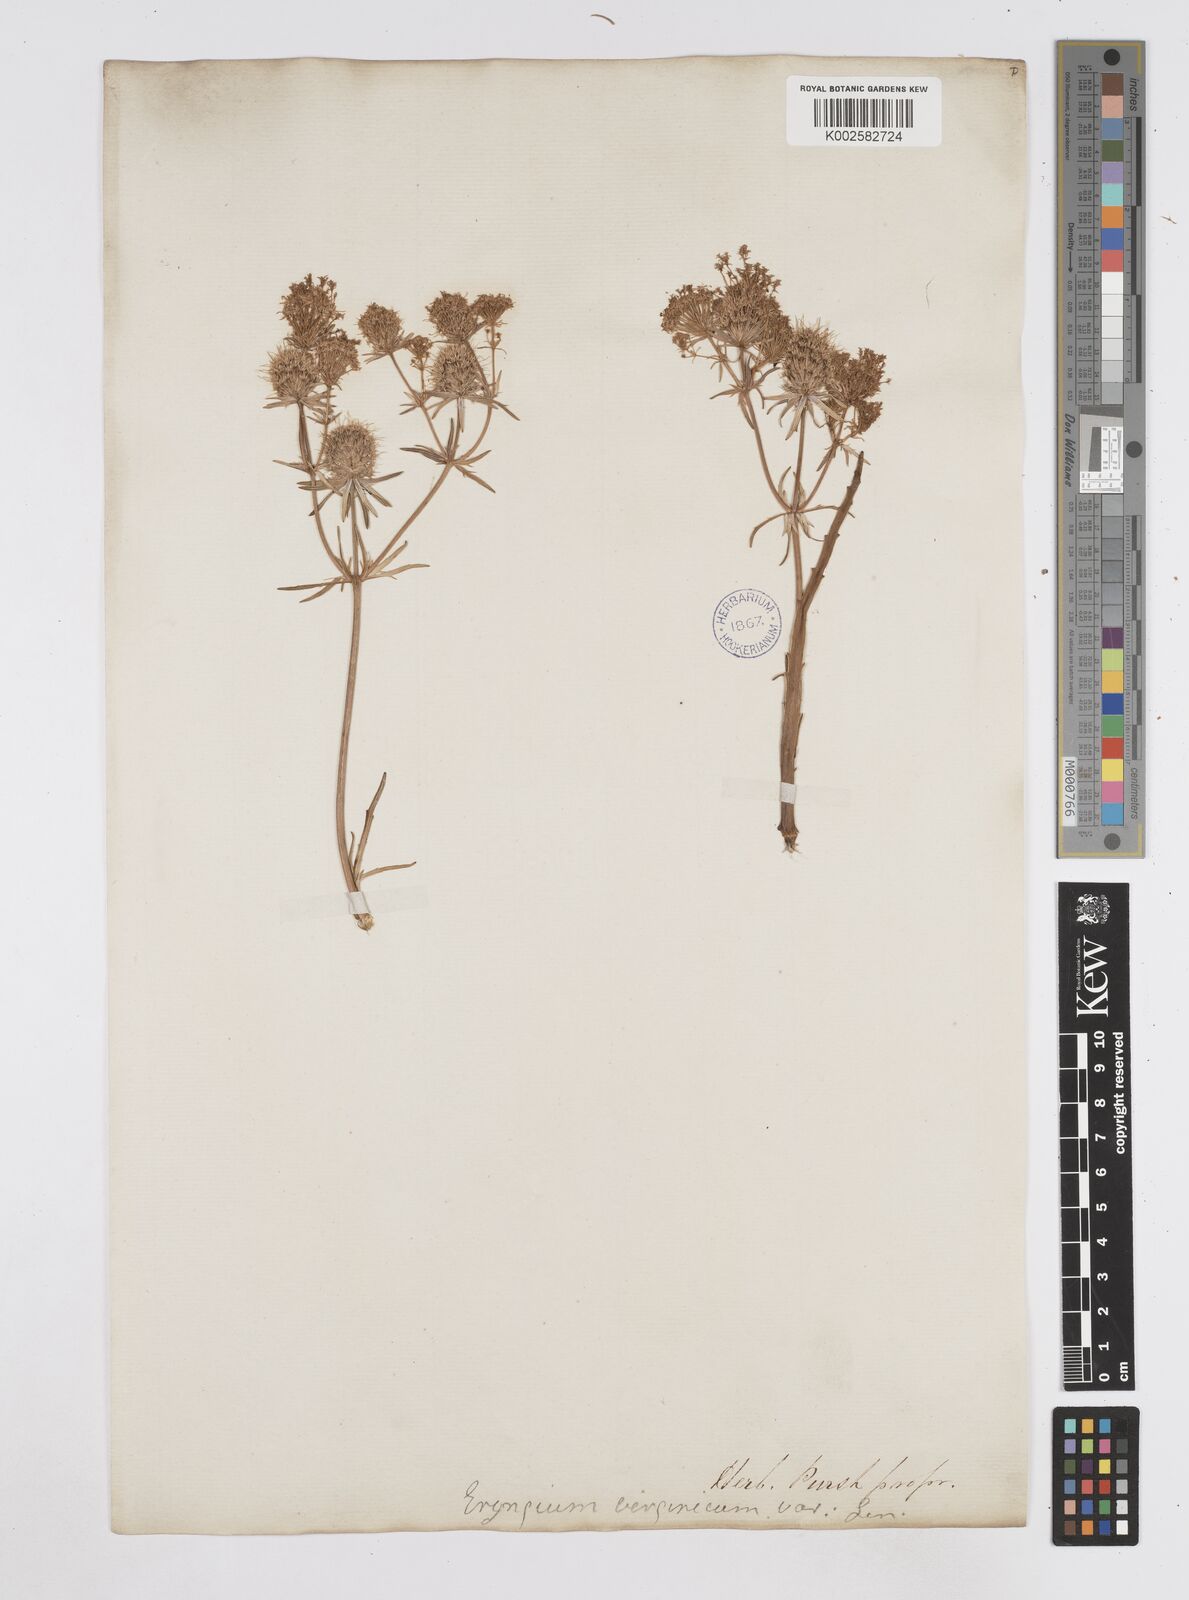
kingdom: Plantae
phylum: Tracheophyta
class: Magnoliopsida
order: Apiales
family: Apiaceae
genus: Eryngium
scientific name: Eryngium aquaticum
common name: Water eryngo
